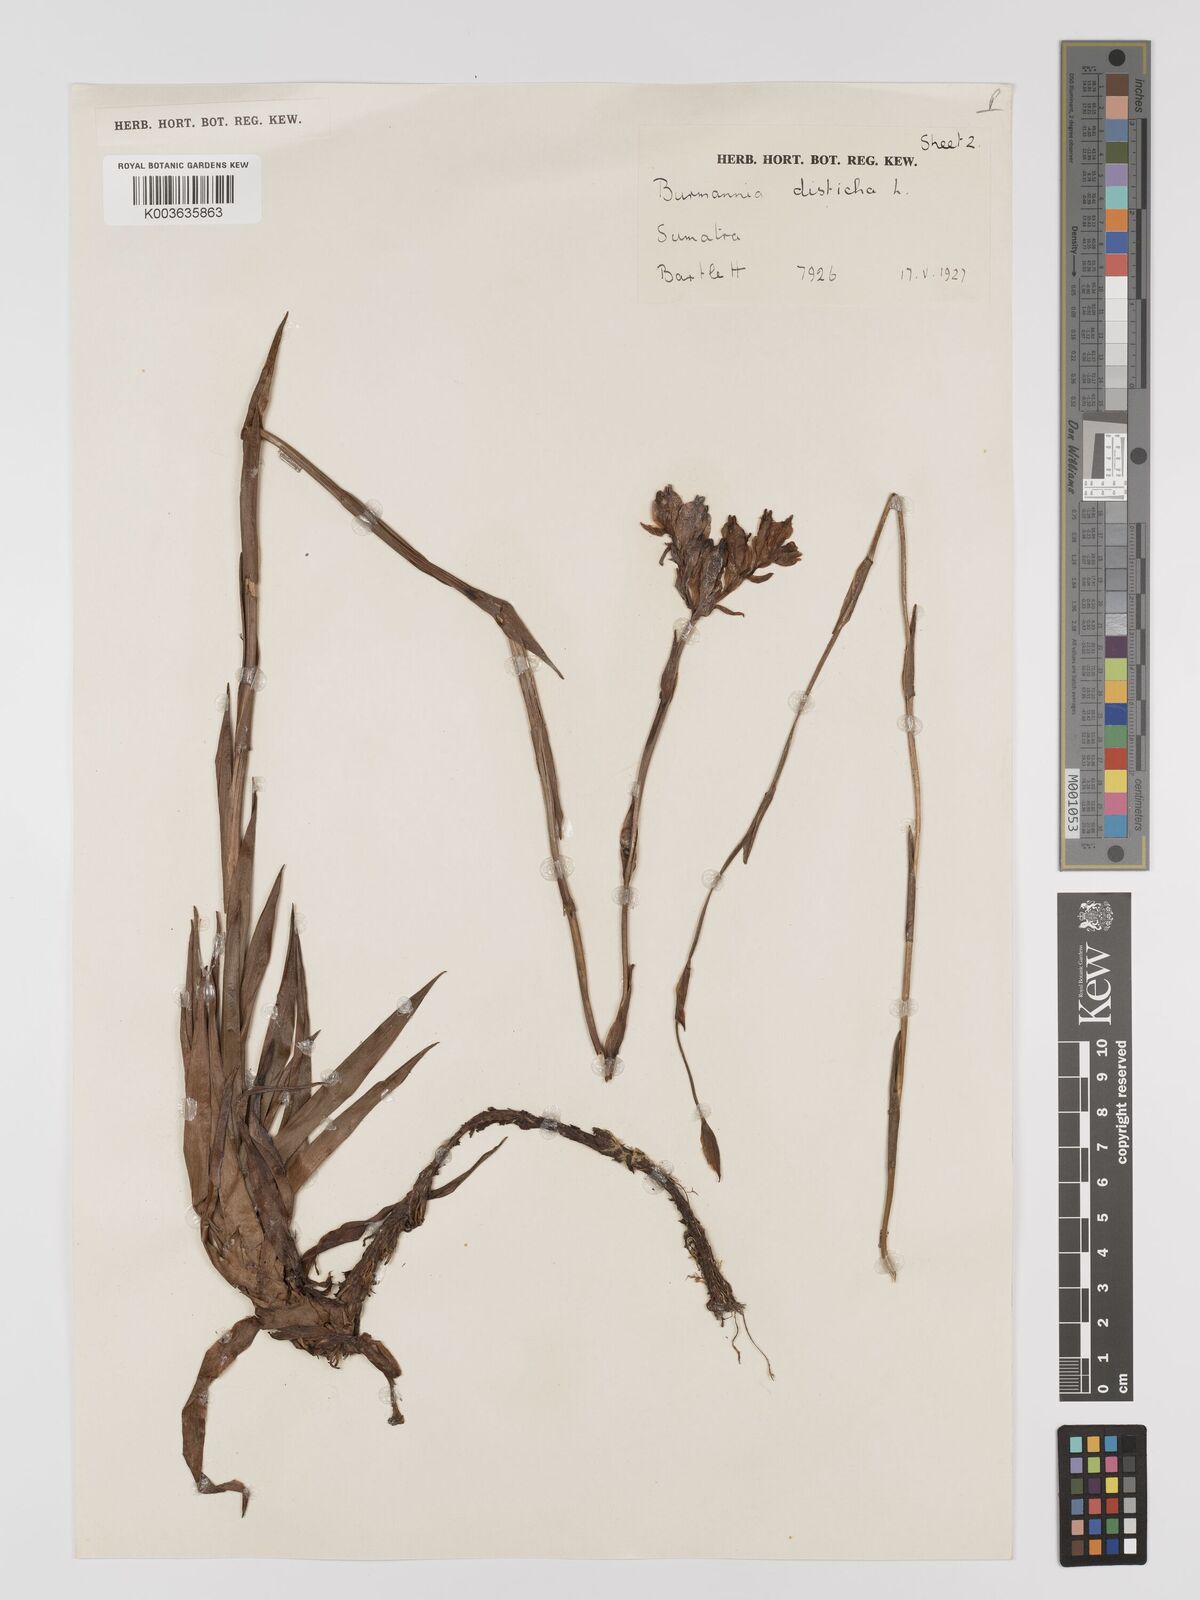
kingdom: Plantae
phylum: Tracheophyta
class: Liliopsida
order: Dioscoreales
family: Burmanniaceae
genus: Burmannia
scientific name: Burmannia disticha
